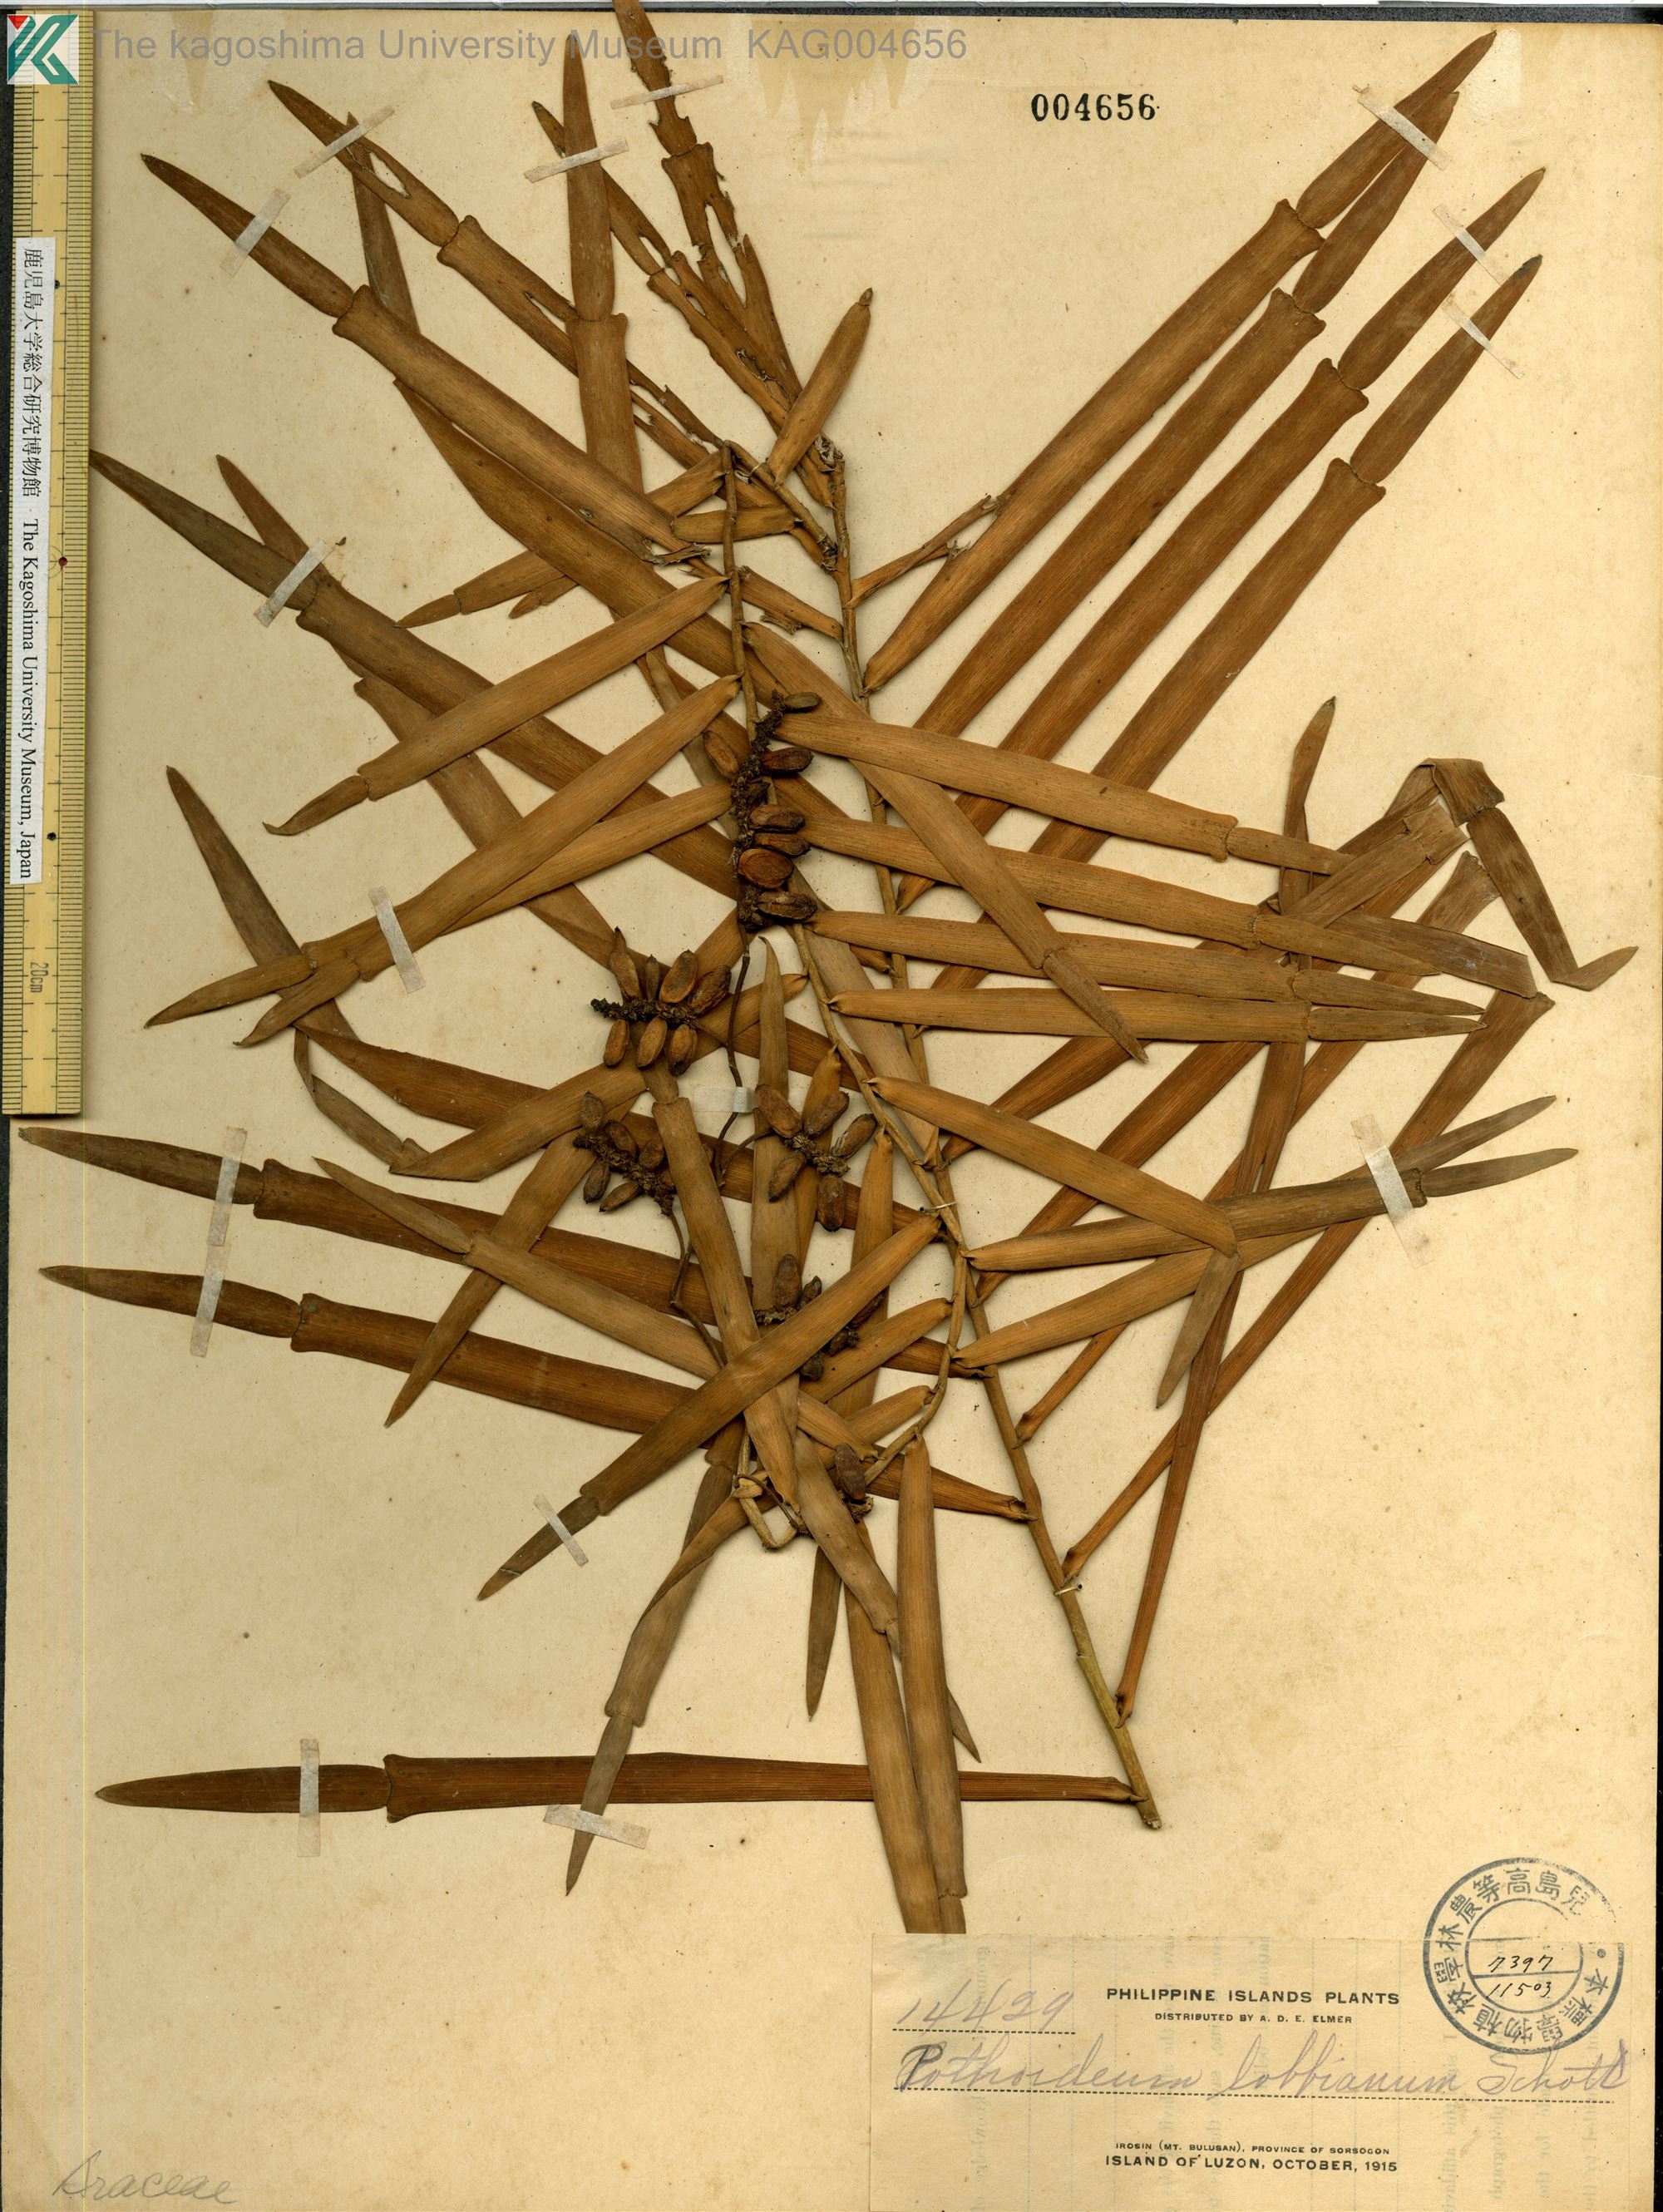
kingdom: Plantae
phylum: Tracheophyta
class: Liliopsida
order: Alismatales
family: Araceae
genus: Pothoidium
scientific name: Pothoidium lobbianum
